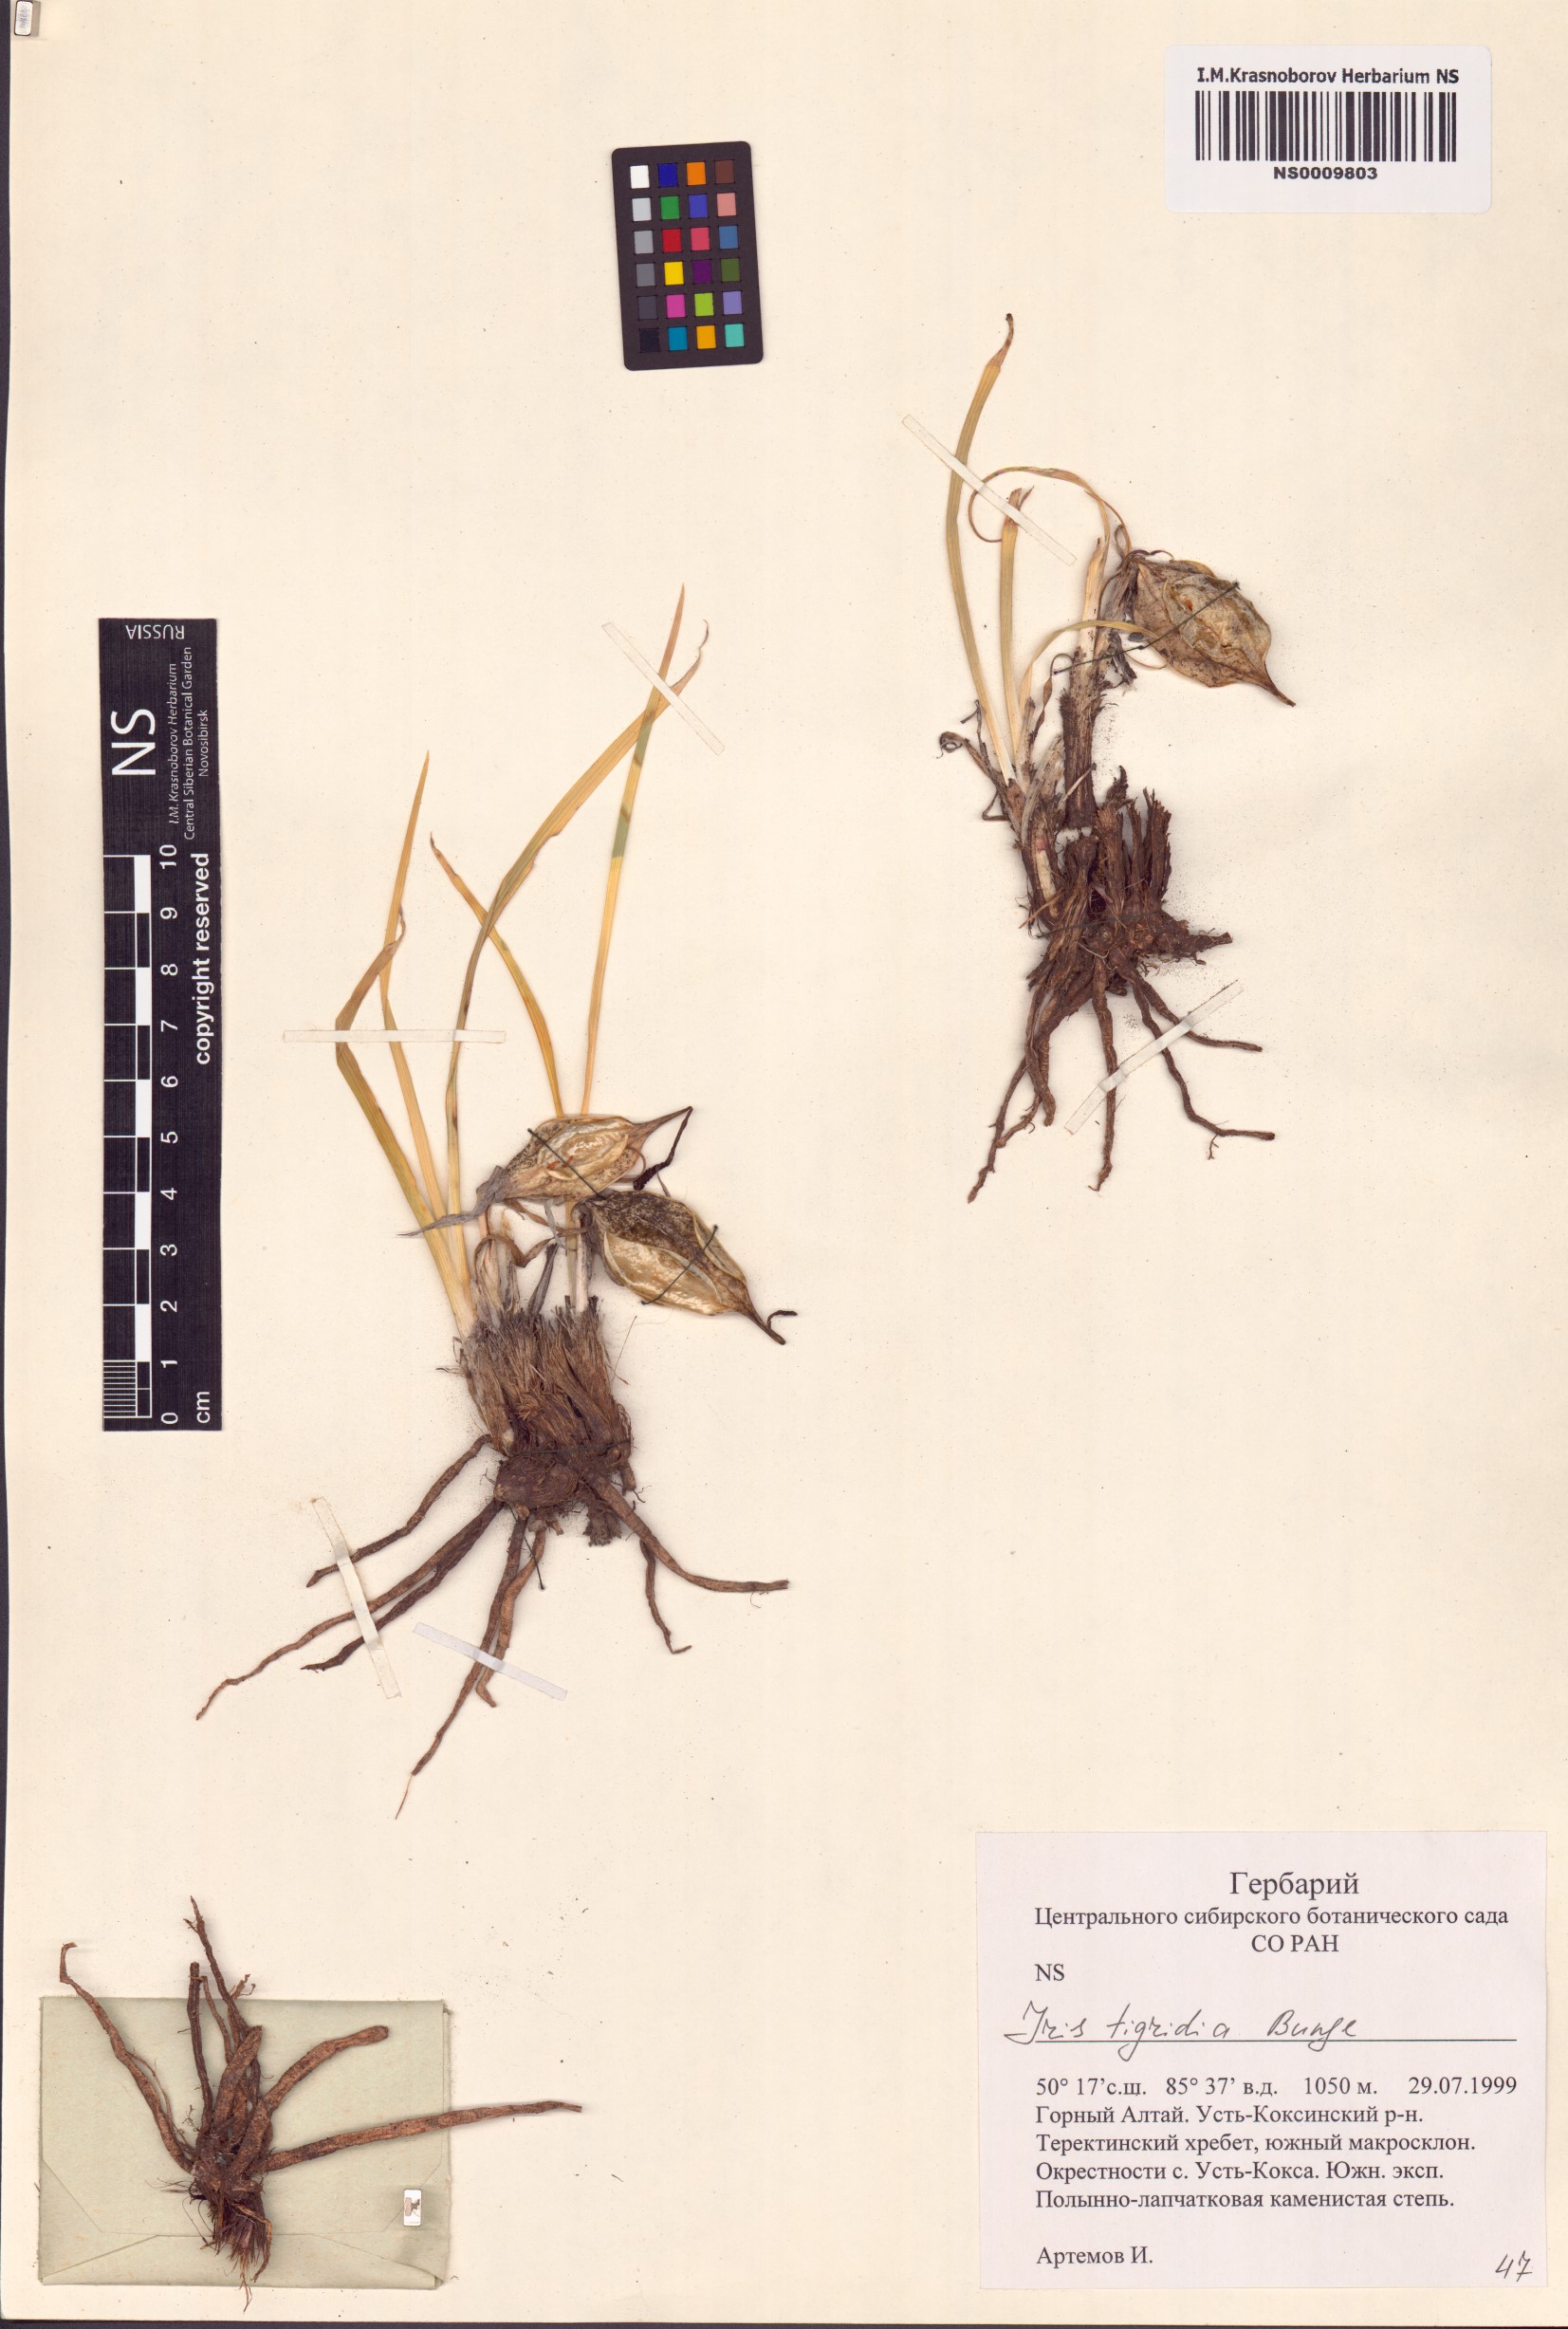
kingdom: Plantae
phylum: Tracheophyta
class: Liliopsida
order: Asparagales
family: Iridaceae
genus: Iris
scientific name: Iris tigridia
